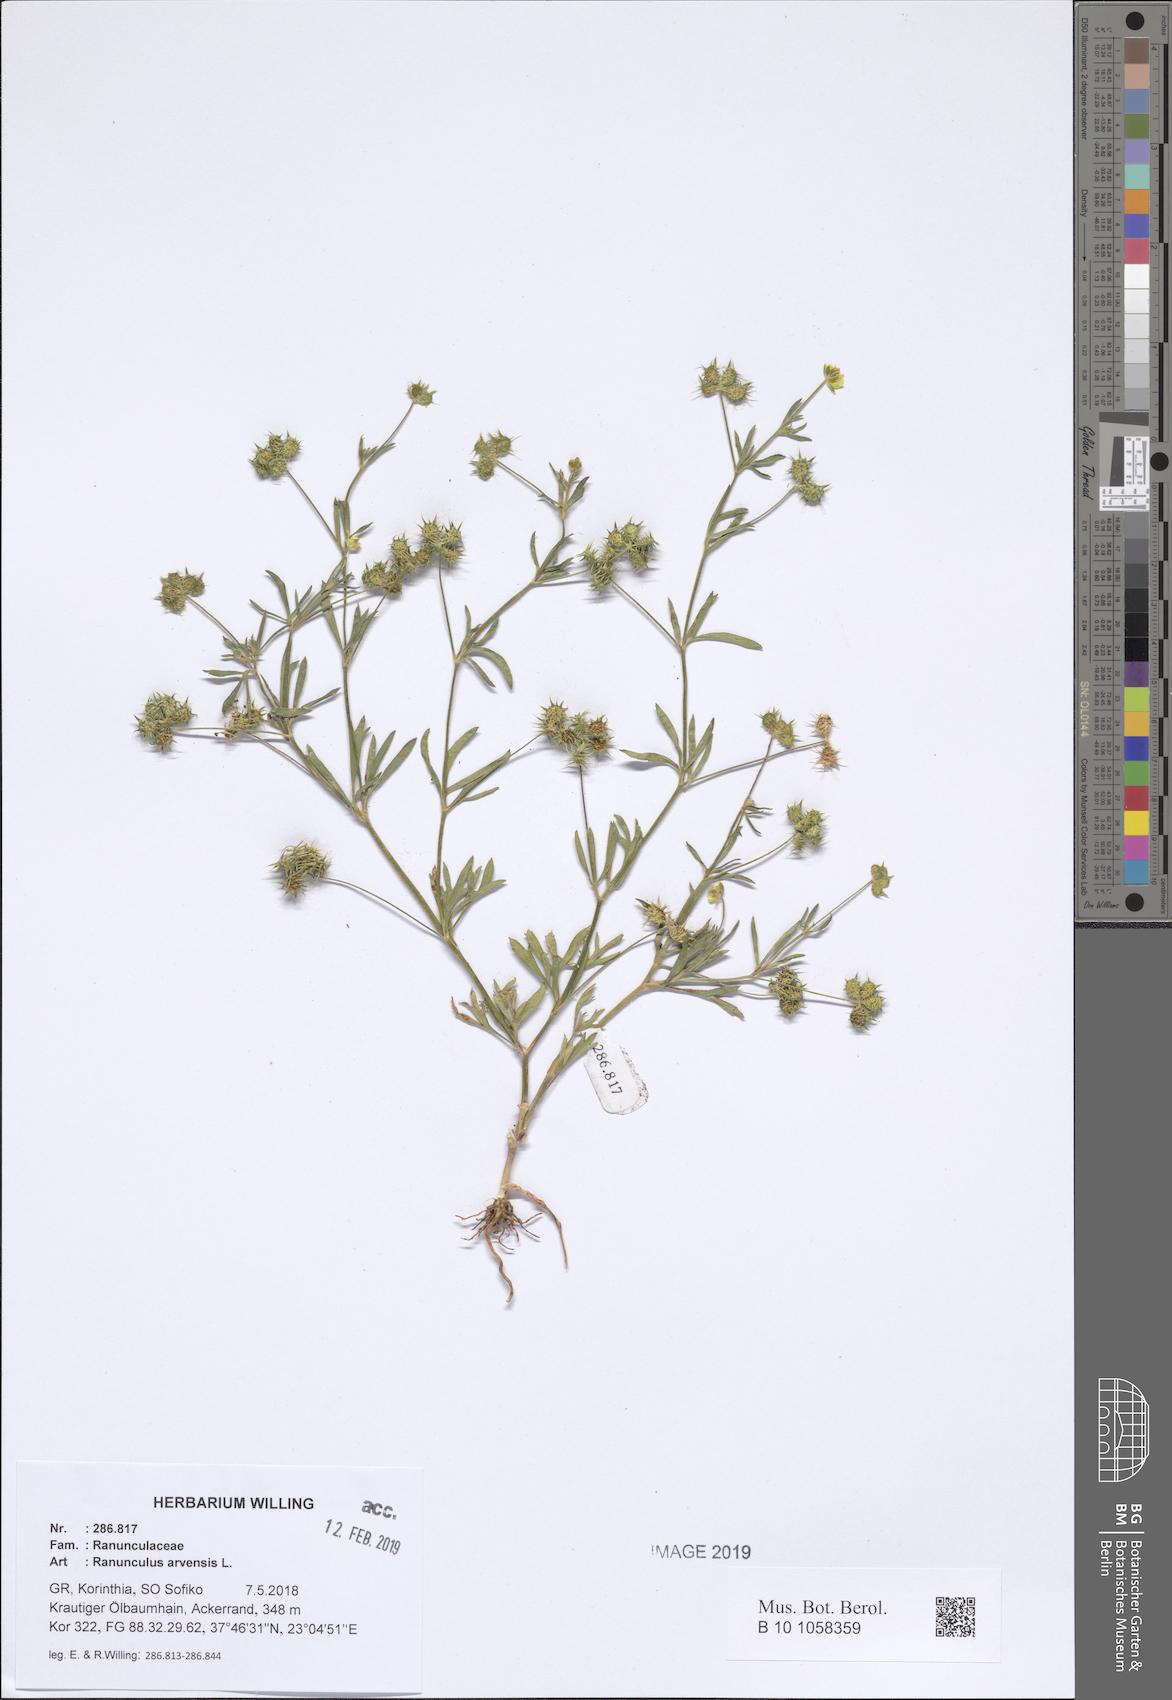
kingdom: Plantae
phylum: Tracheophyta
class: Magnoliopsida
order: Ranunculales
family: Ranunculaceae
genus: Ranunculus
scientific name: Ranunculus arvensis
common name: Corn buttercup
